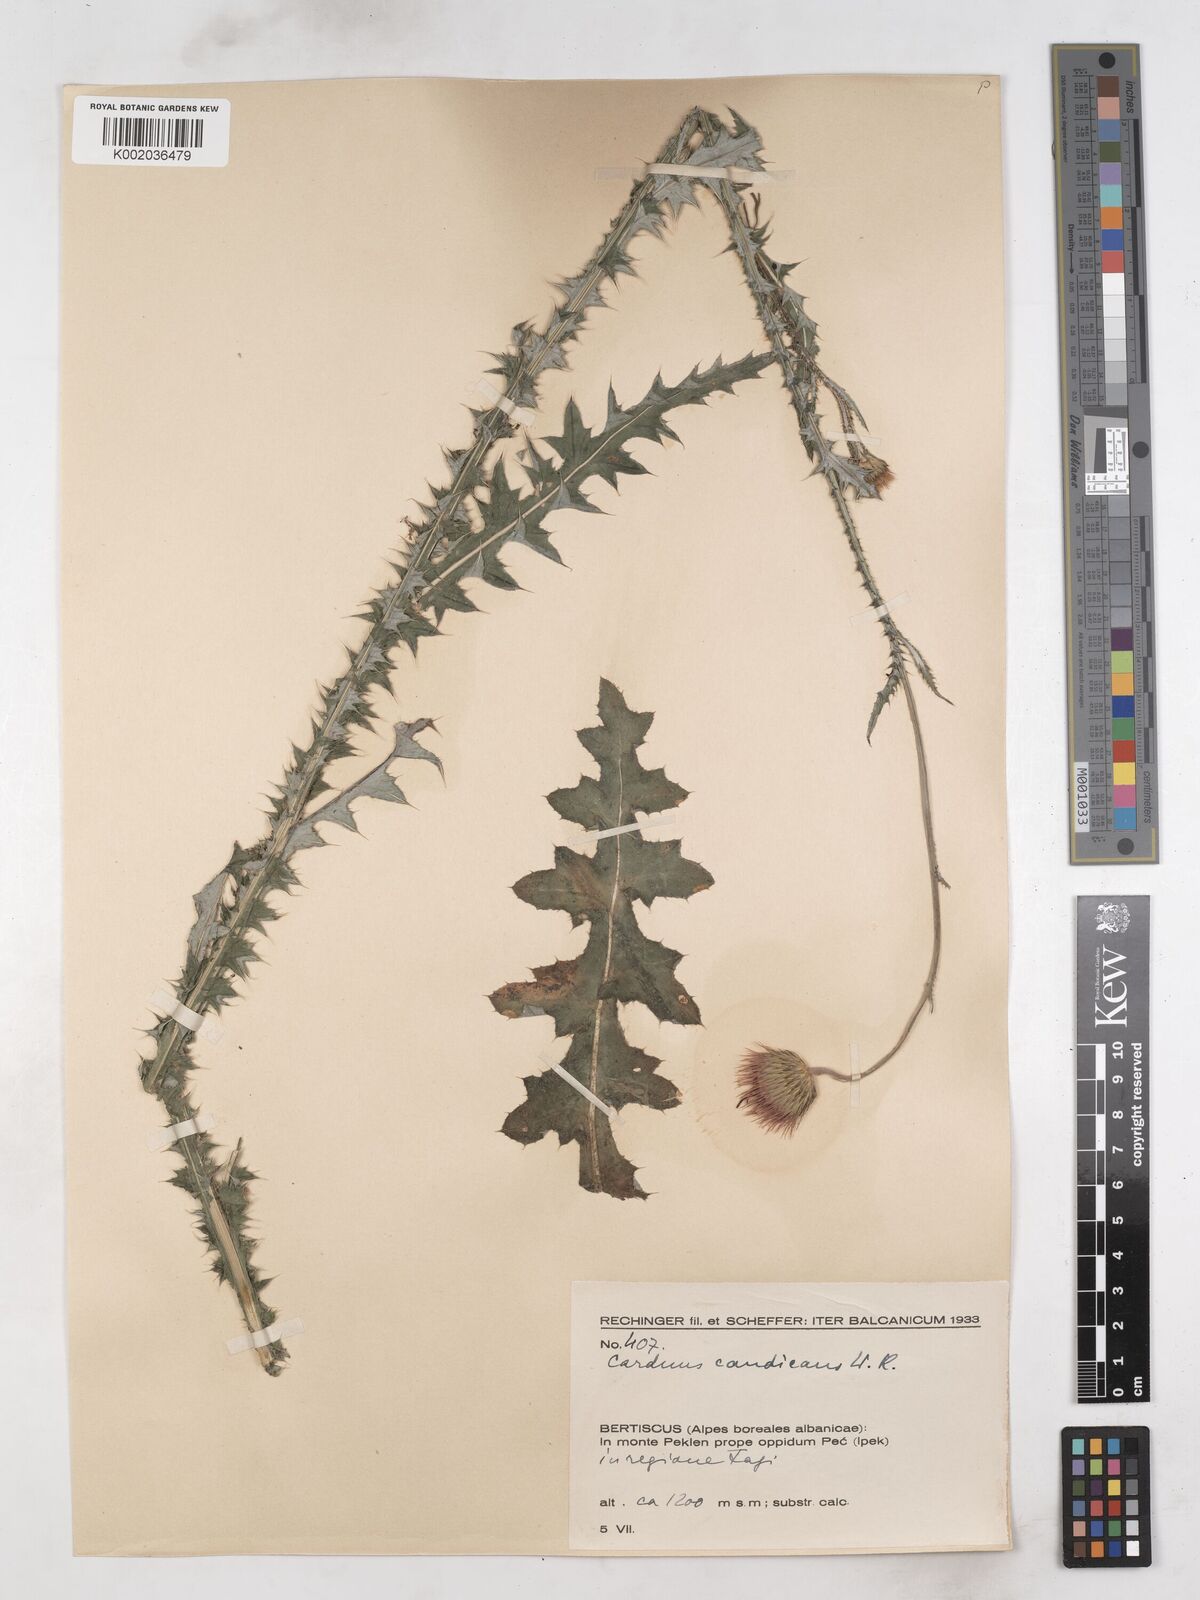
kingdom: Plantae
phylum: Tracheophyta
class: Magnoliopsida
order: Asterales
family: Asteraceae
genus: Carduus
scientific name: Carduus candicans
